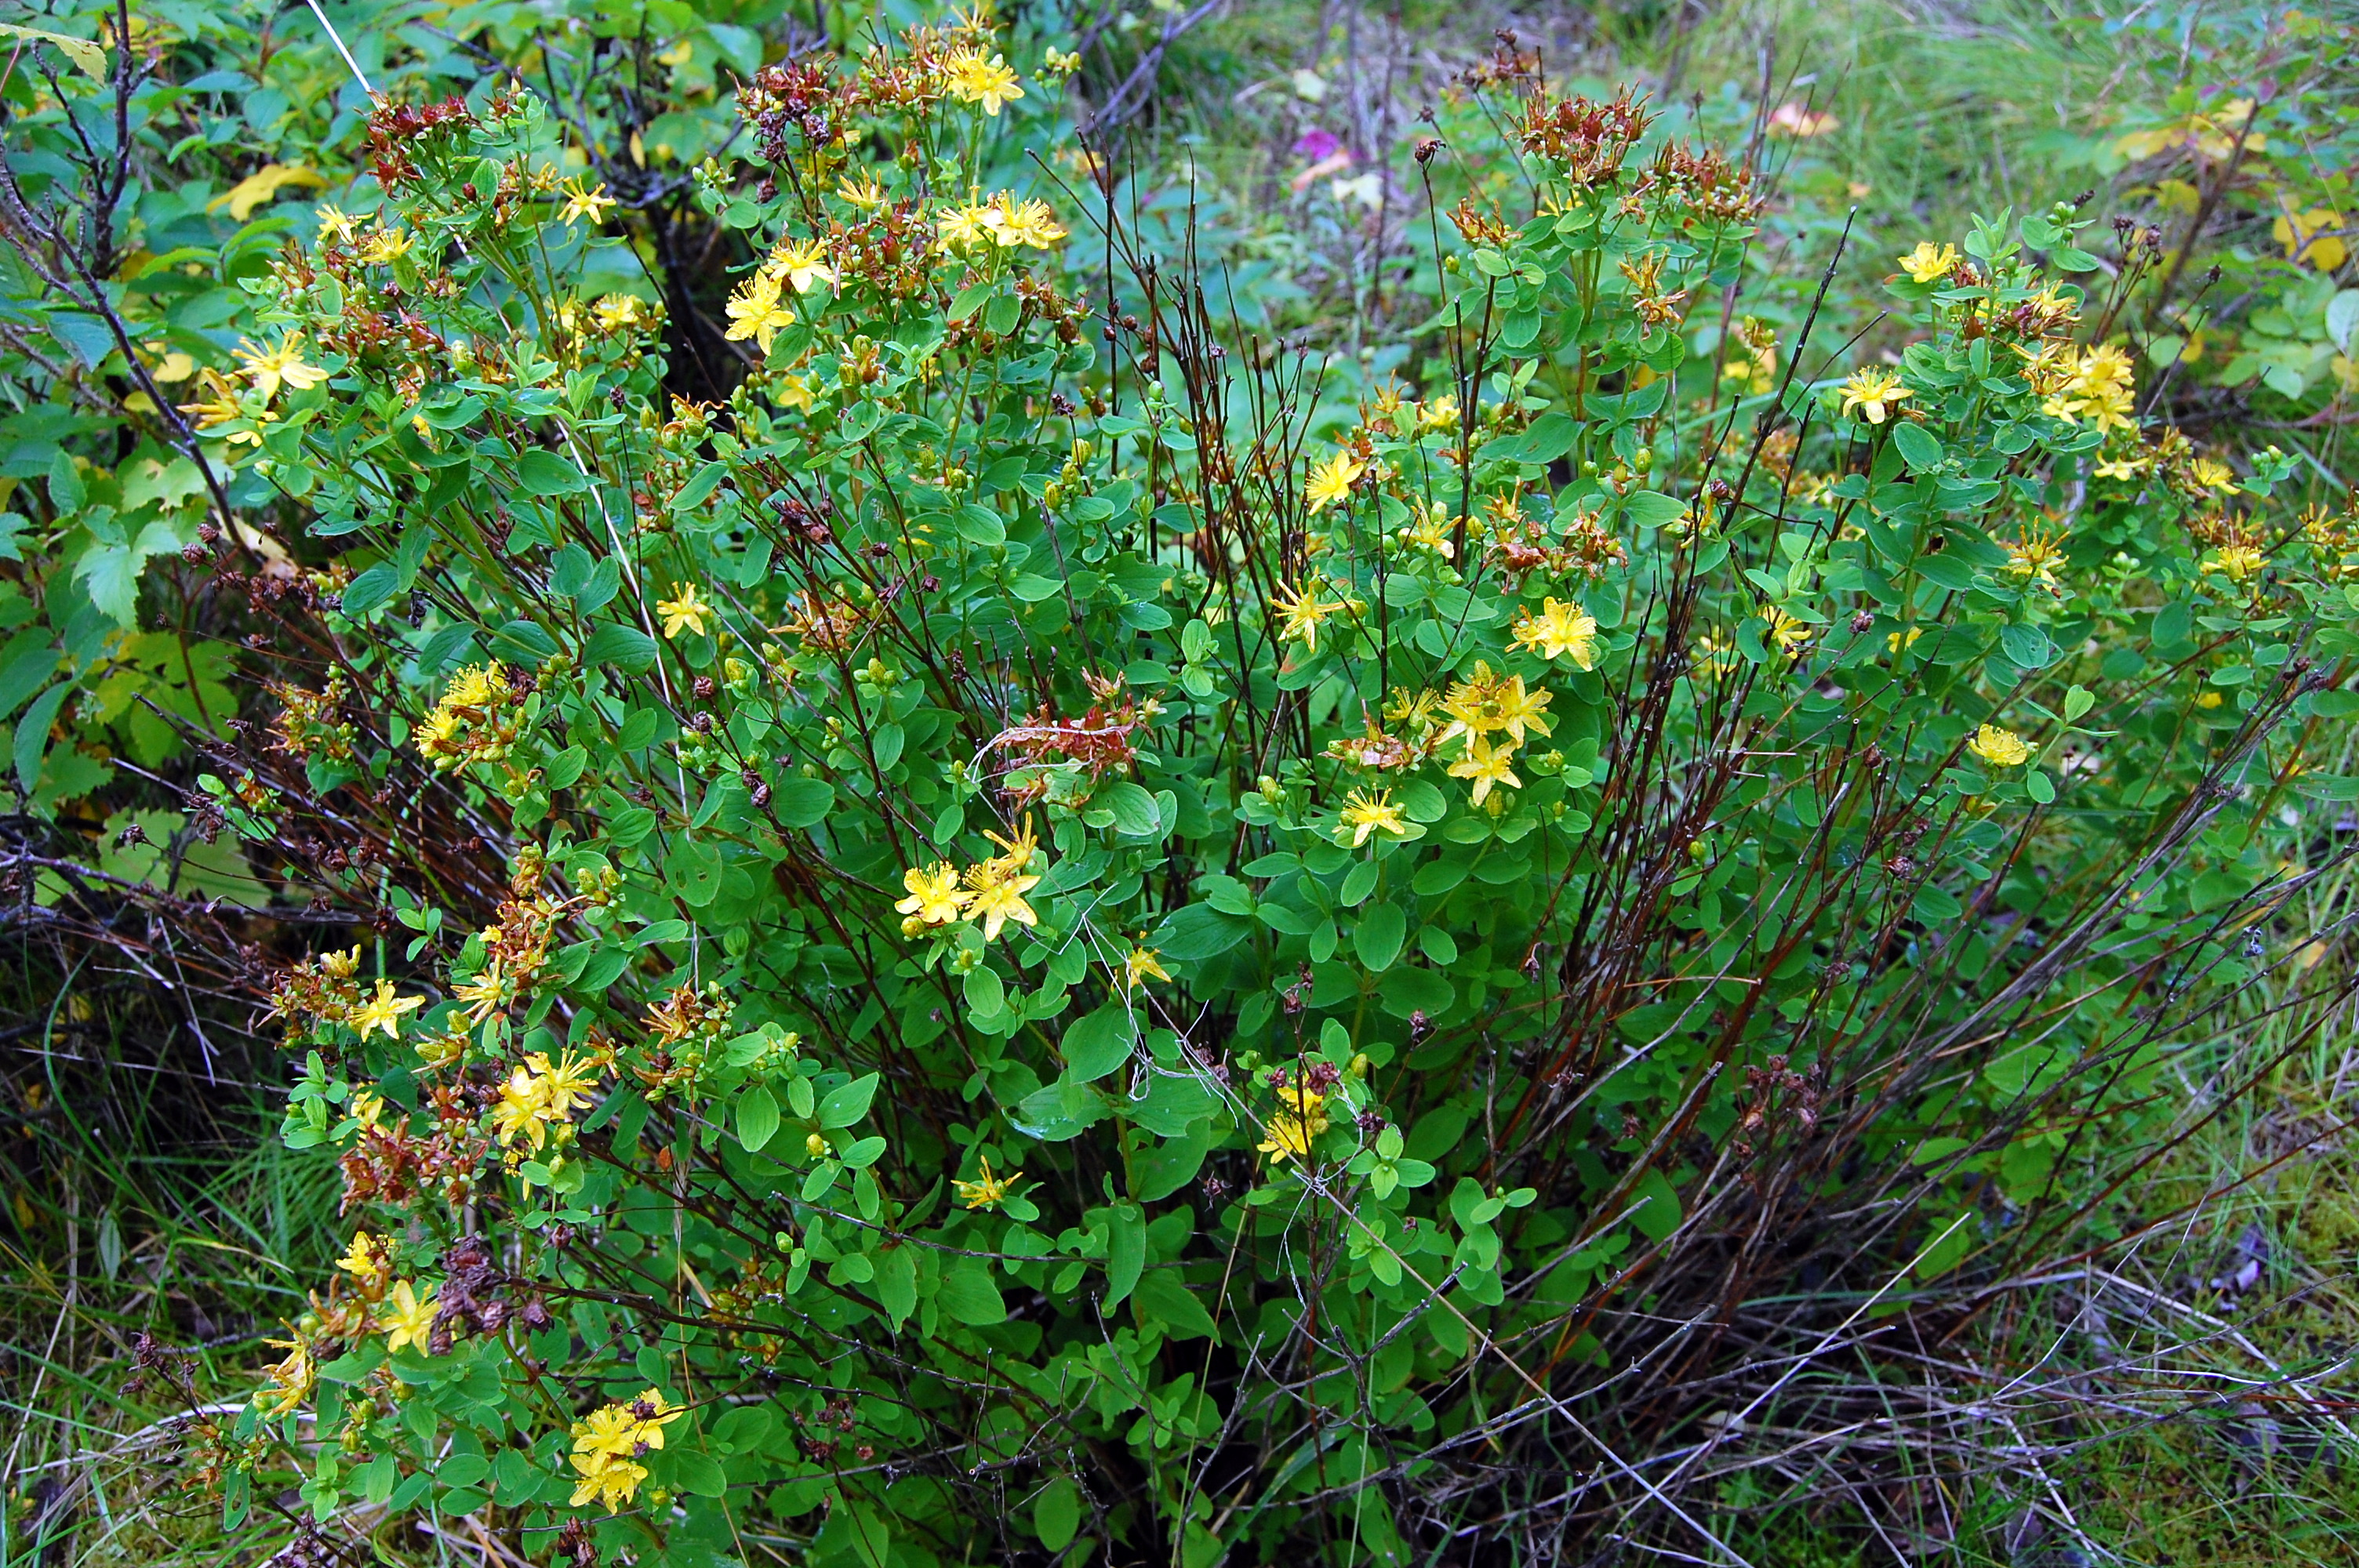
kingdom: Plantae
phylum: Tracheophyta
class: Magnoliopsida
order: Malpighiales
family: Hypericaceae
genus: Hypericum
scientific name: Hypericum maculatum
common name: Imperforate st. john's-wort
